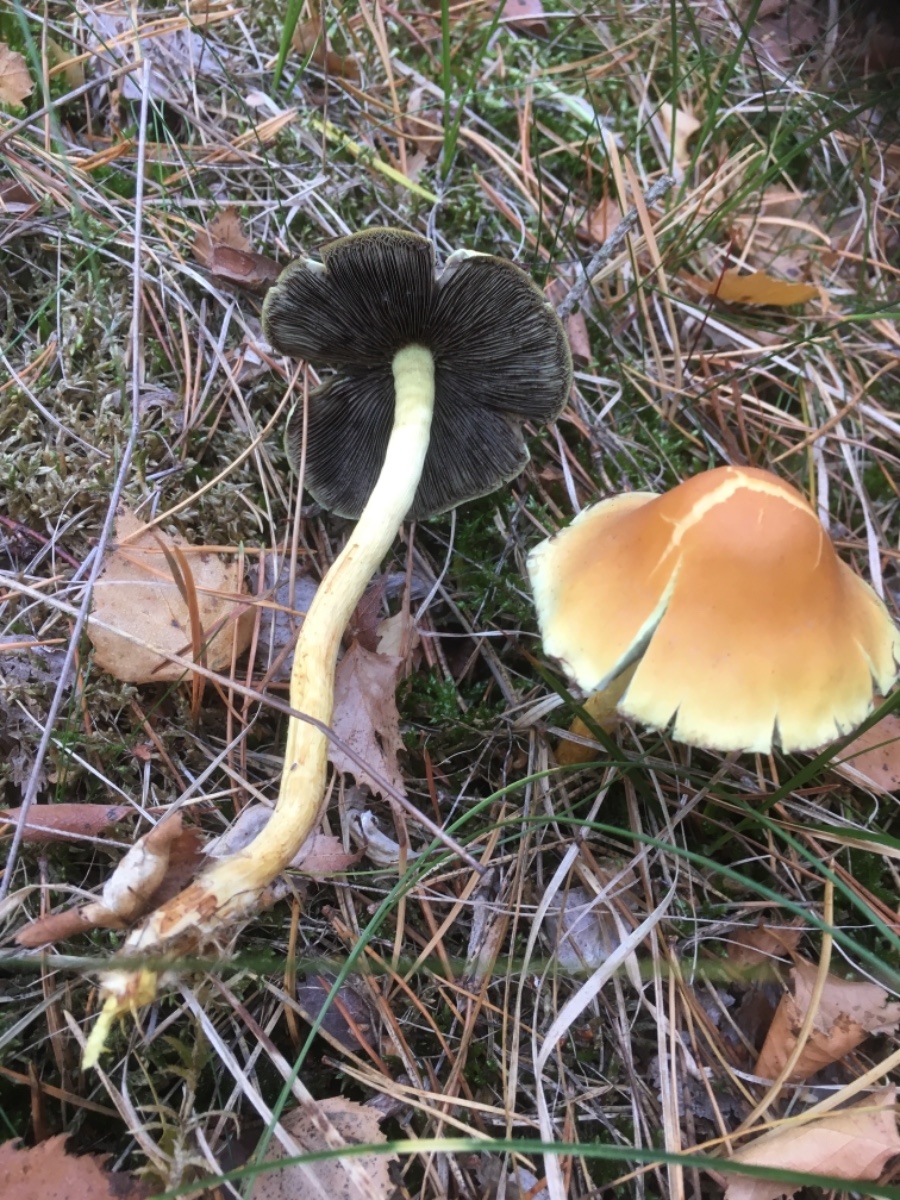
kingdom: Fungi
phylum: Basidiomycota
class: Agaricomycetes
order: Agaricales
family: Strophariaceae
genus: Hypholoma
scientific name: Hypholoma fasciculare
